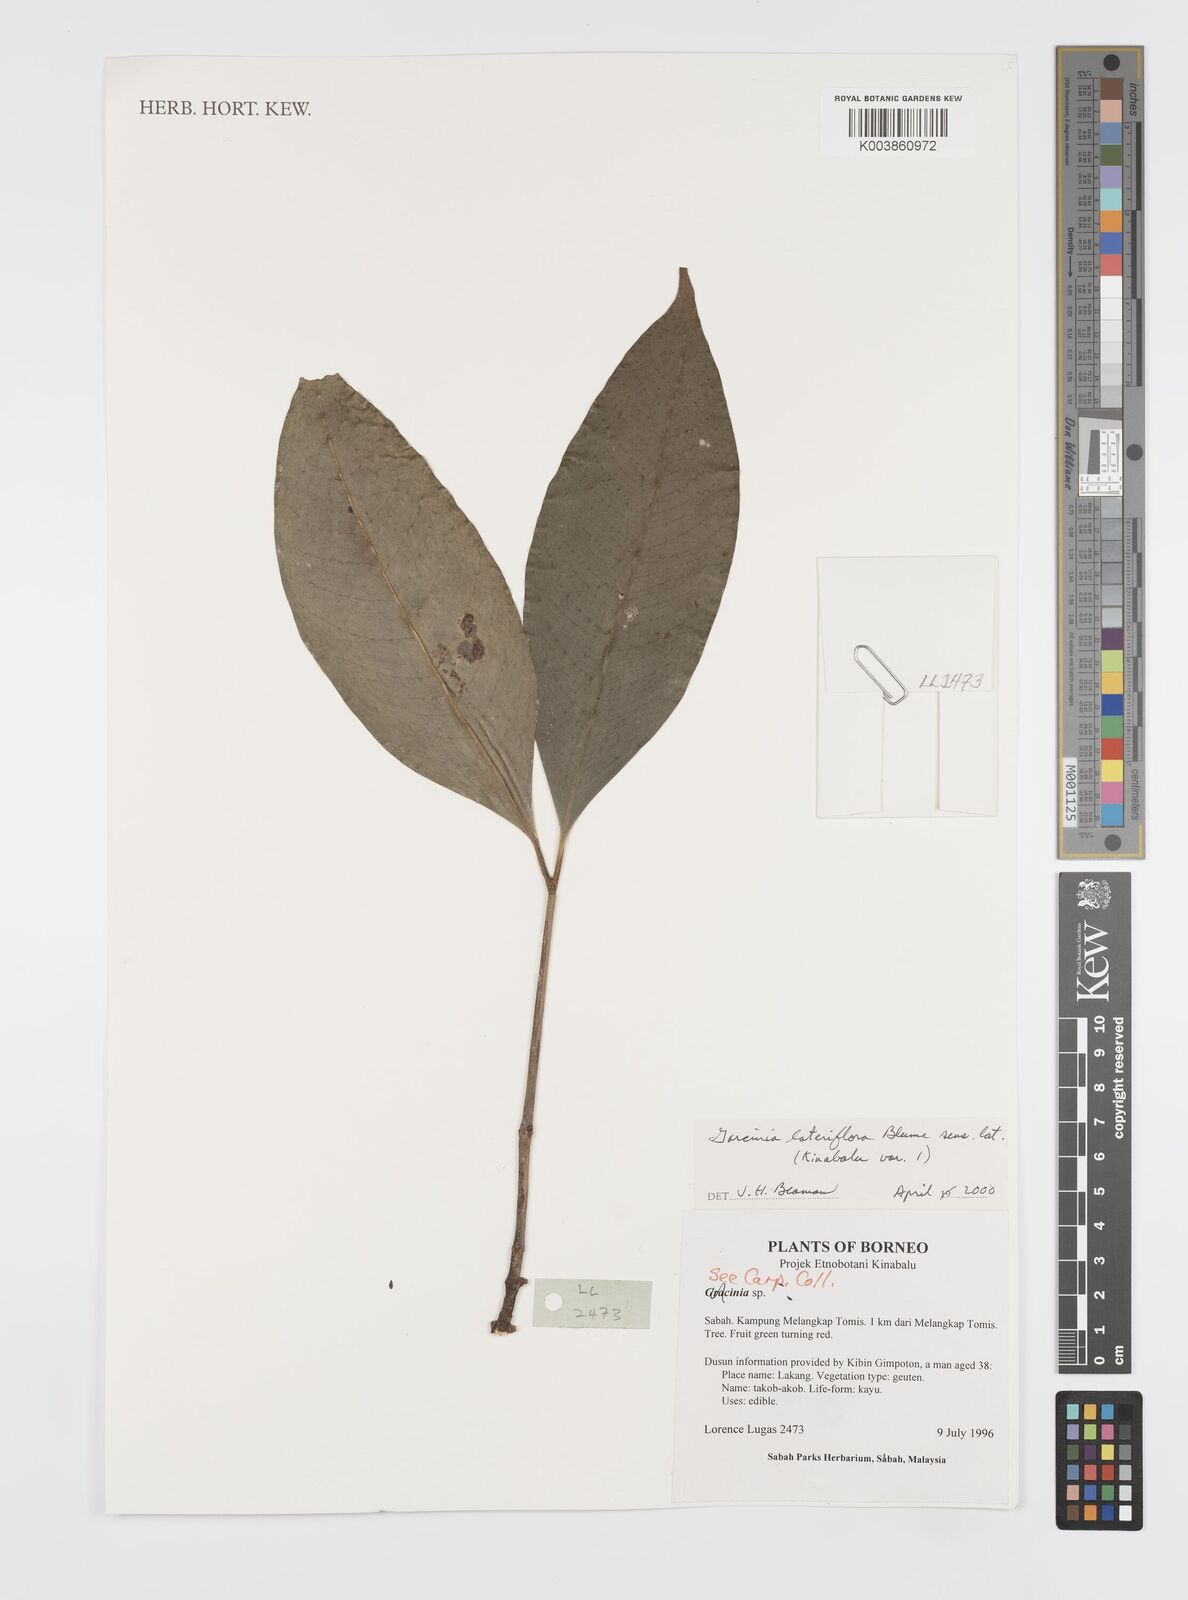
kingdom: Plantae
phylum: Tracheophyta
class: Magnoliopsida
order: Malpighiales
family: Clusiaceae
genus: Garcinia
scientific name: Garcinia lateriflora
